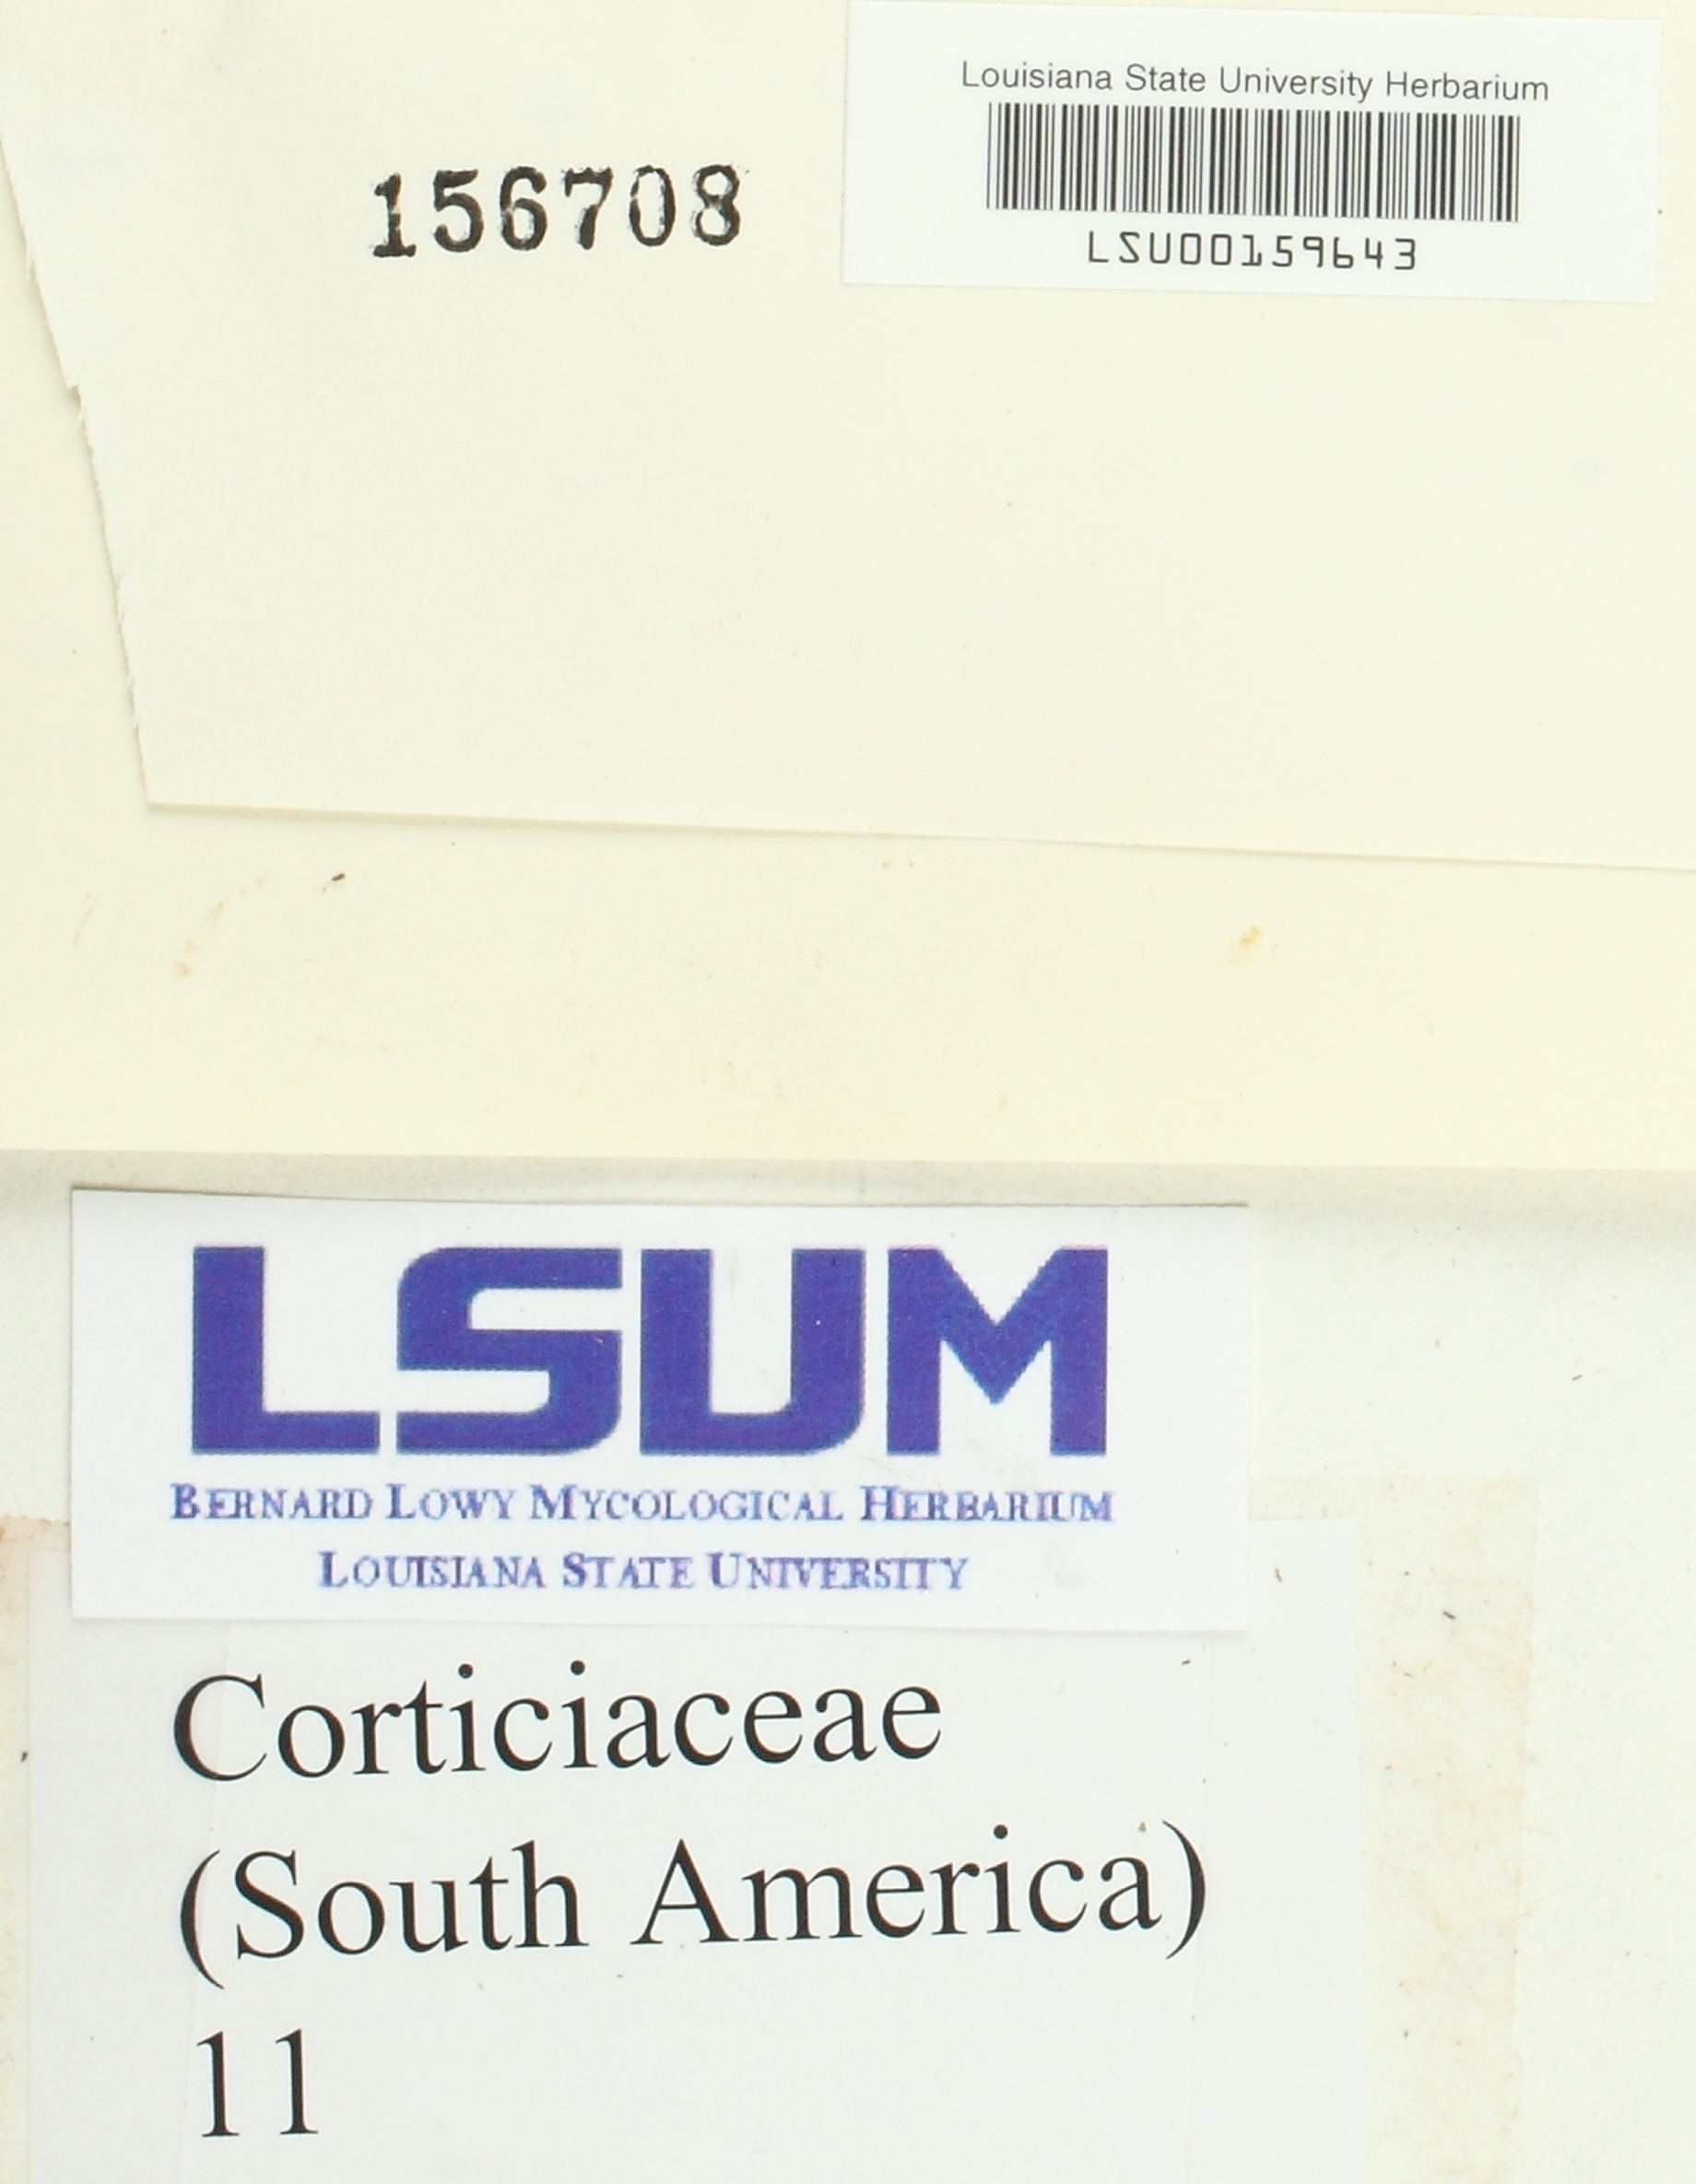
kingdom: Fungi
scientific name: Fungi
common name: Fungi
